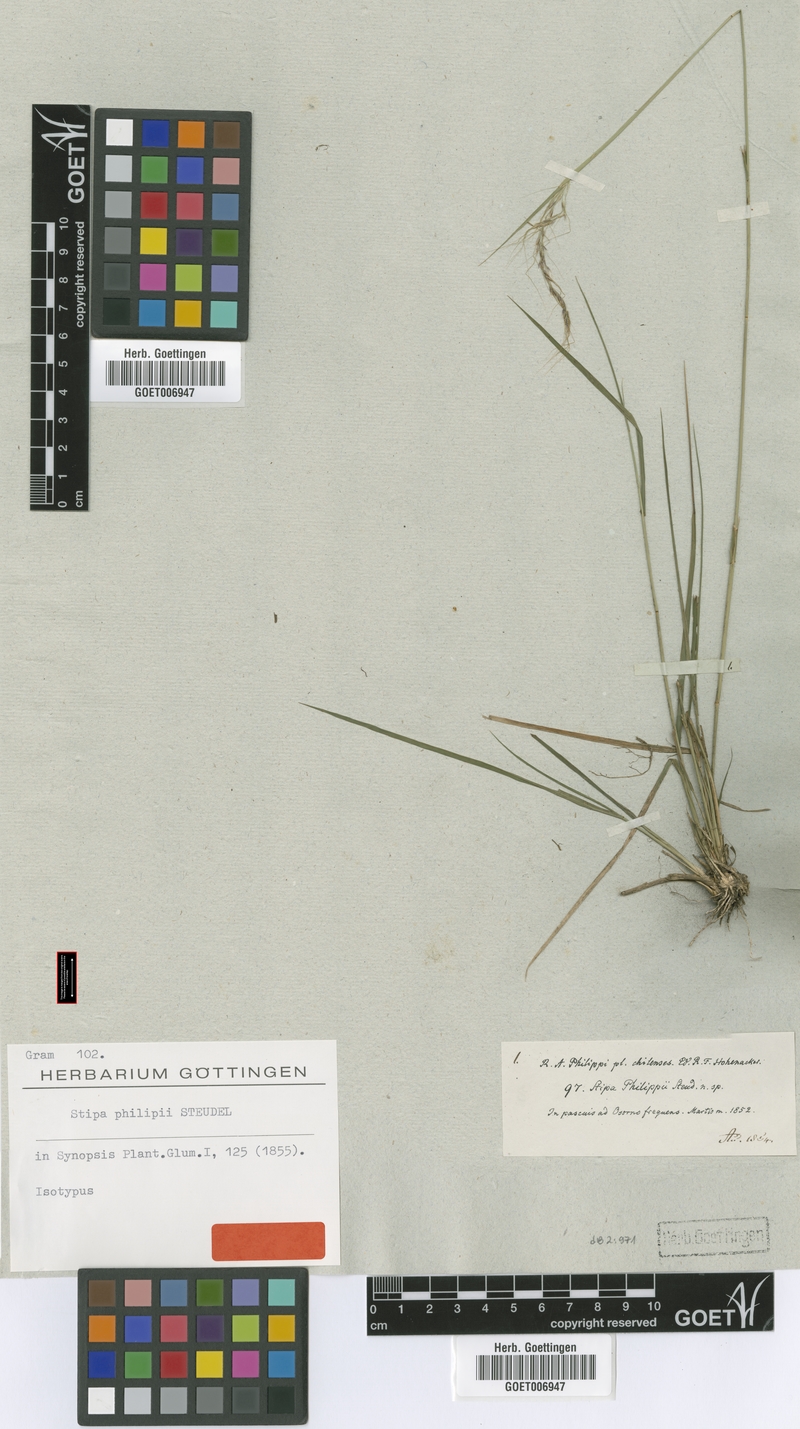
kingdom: Plantae
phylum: Tracheophyta
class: Liliopsida
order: Poales
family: Poaceae
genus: Nassella
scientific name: Nassella philippii
